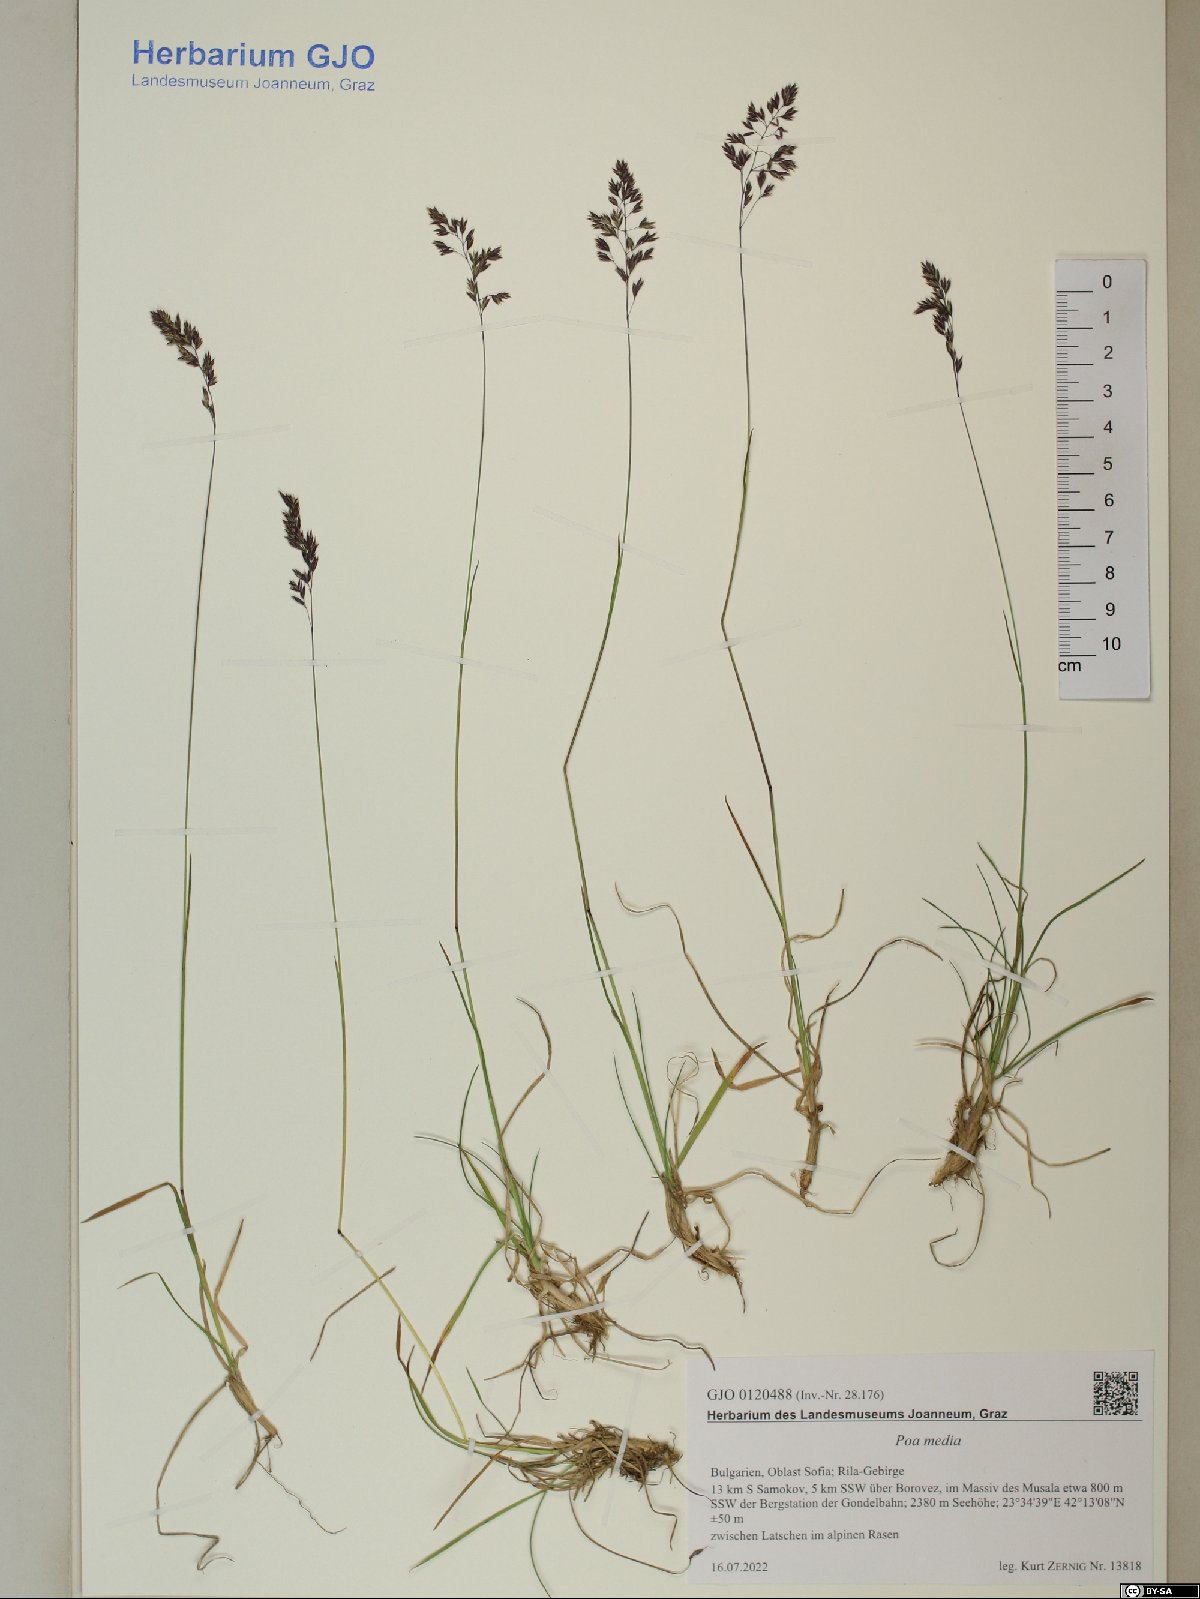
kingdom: Plantae
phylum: Tracheophyta
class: Liliopsida
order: Poales
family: Poaceae
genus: Poa
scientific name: Poa ursina
